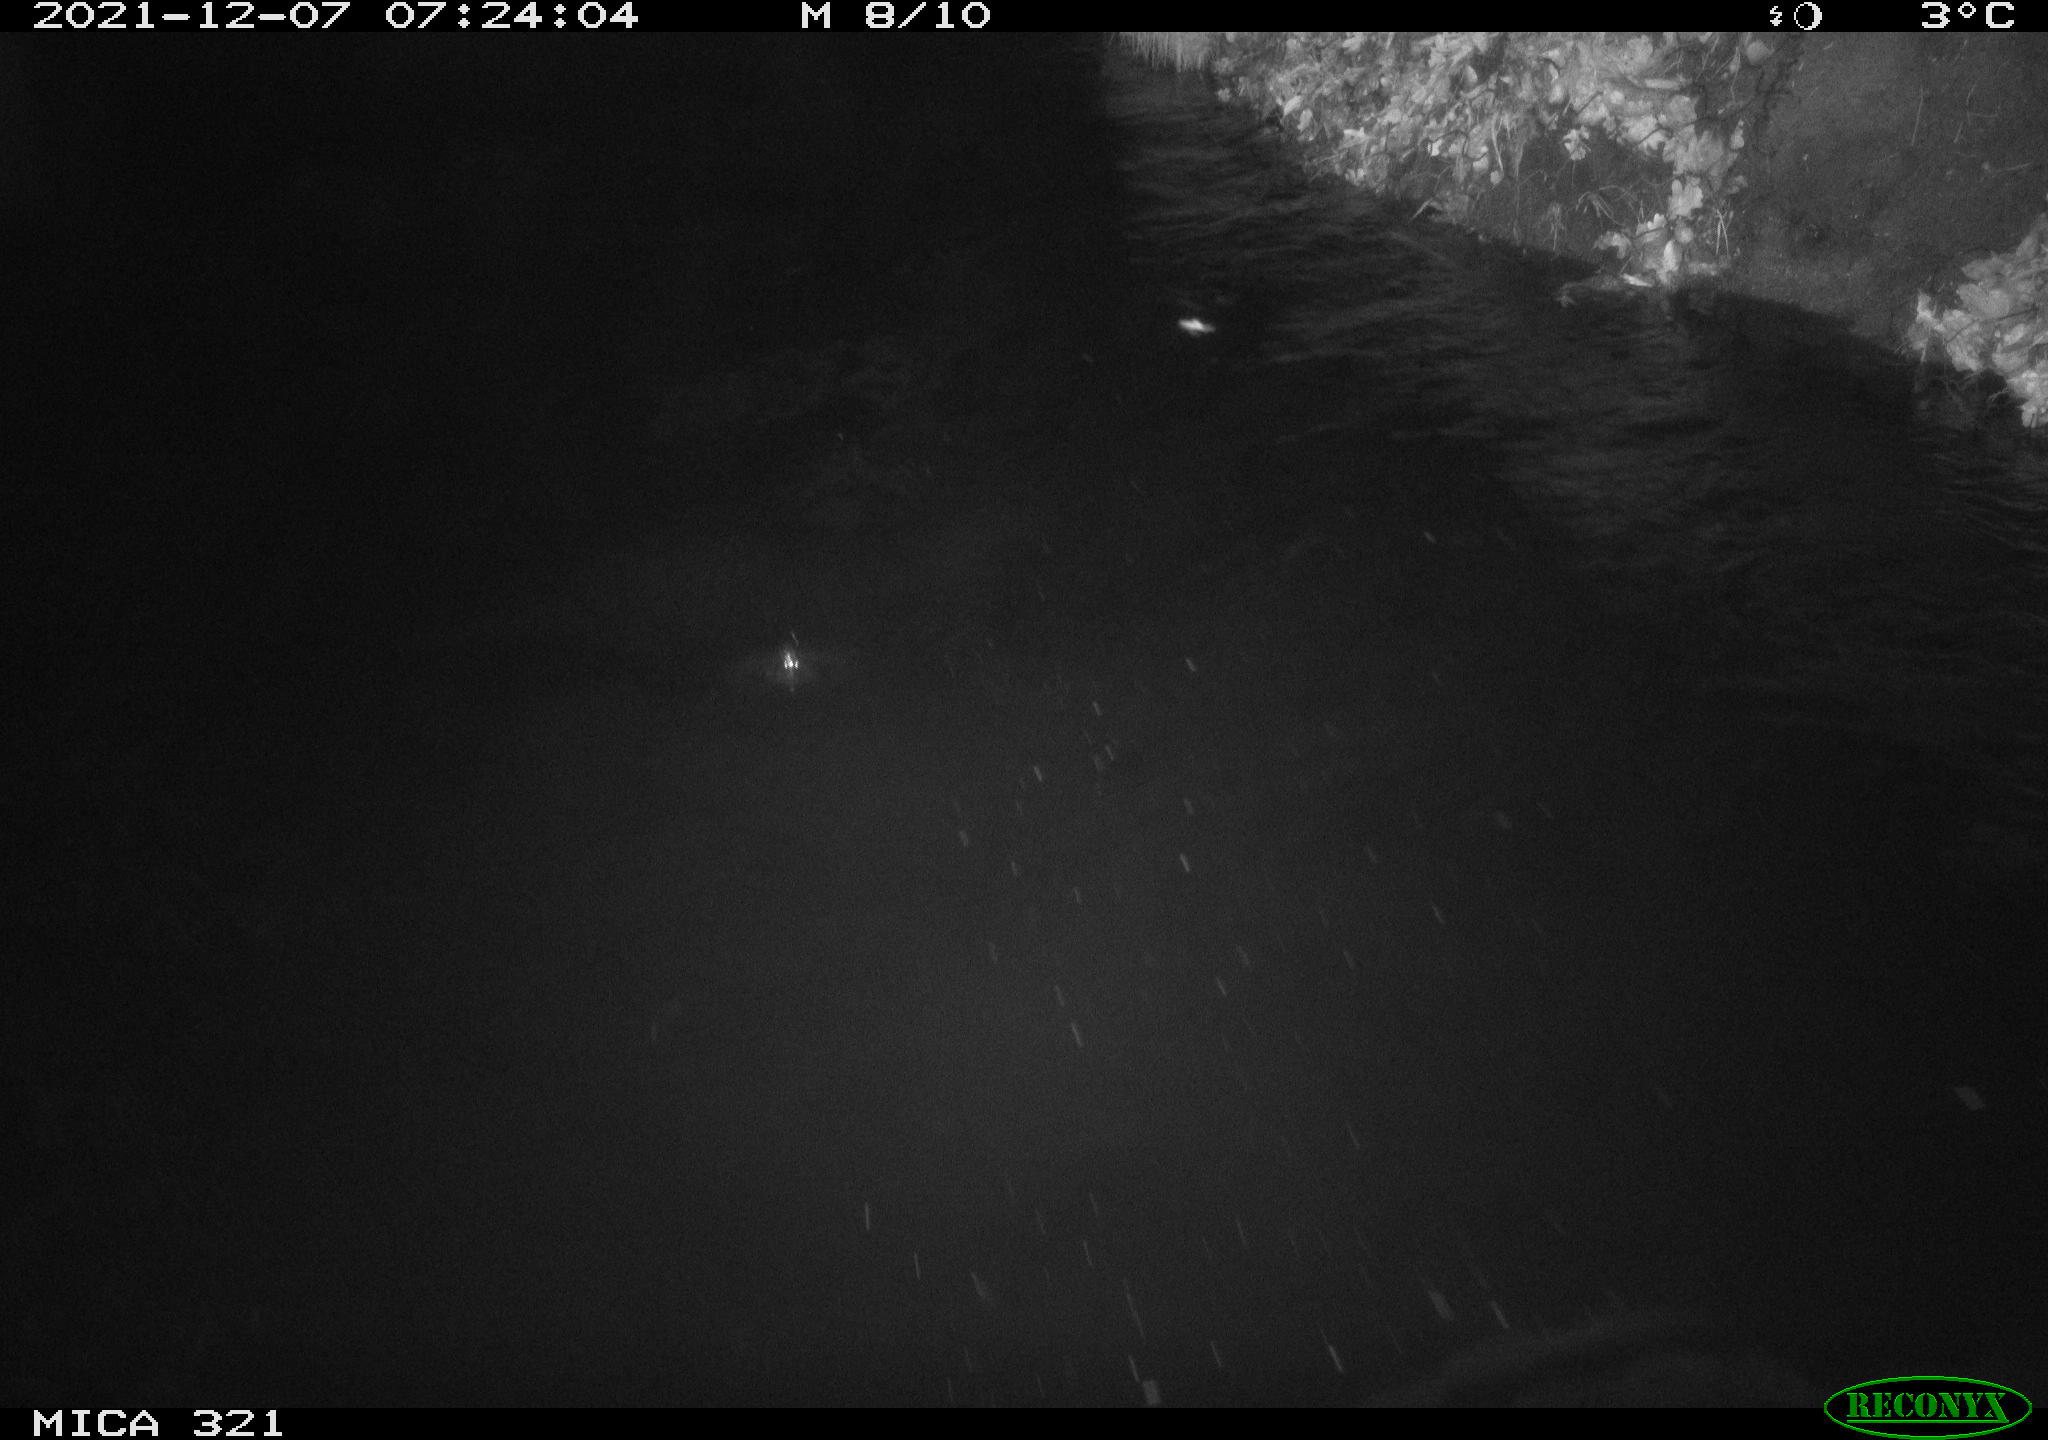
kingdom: Animalia
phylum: Chordata
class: Aves
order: Anseriformes
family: Anatidae
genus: Anas
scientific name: Anas
